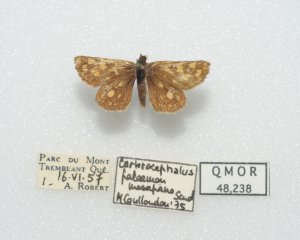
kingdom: Animalia
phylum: Arthropoda
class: Insecta
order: Lepidoptera
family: Hesperiidae
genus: Carterocephalus
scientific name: Carterocephalus palaemon
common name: Chequered Skipper
